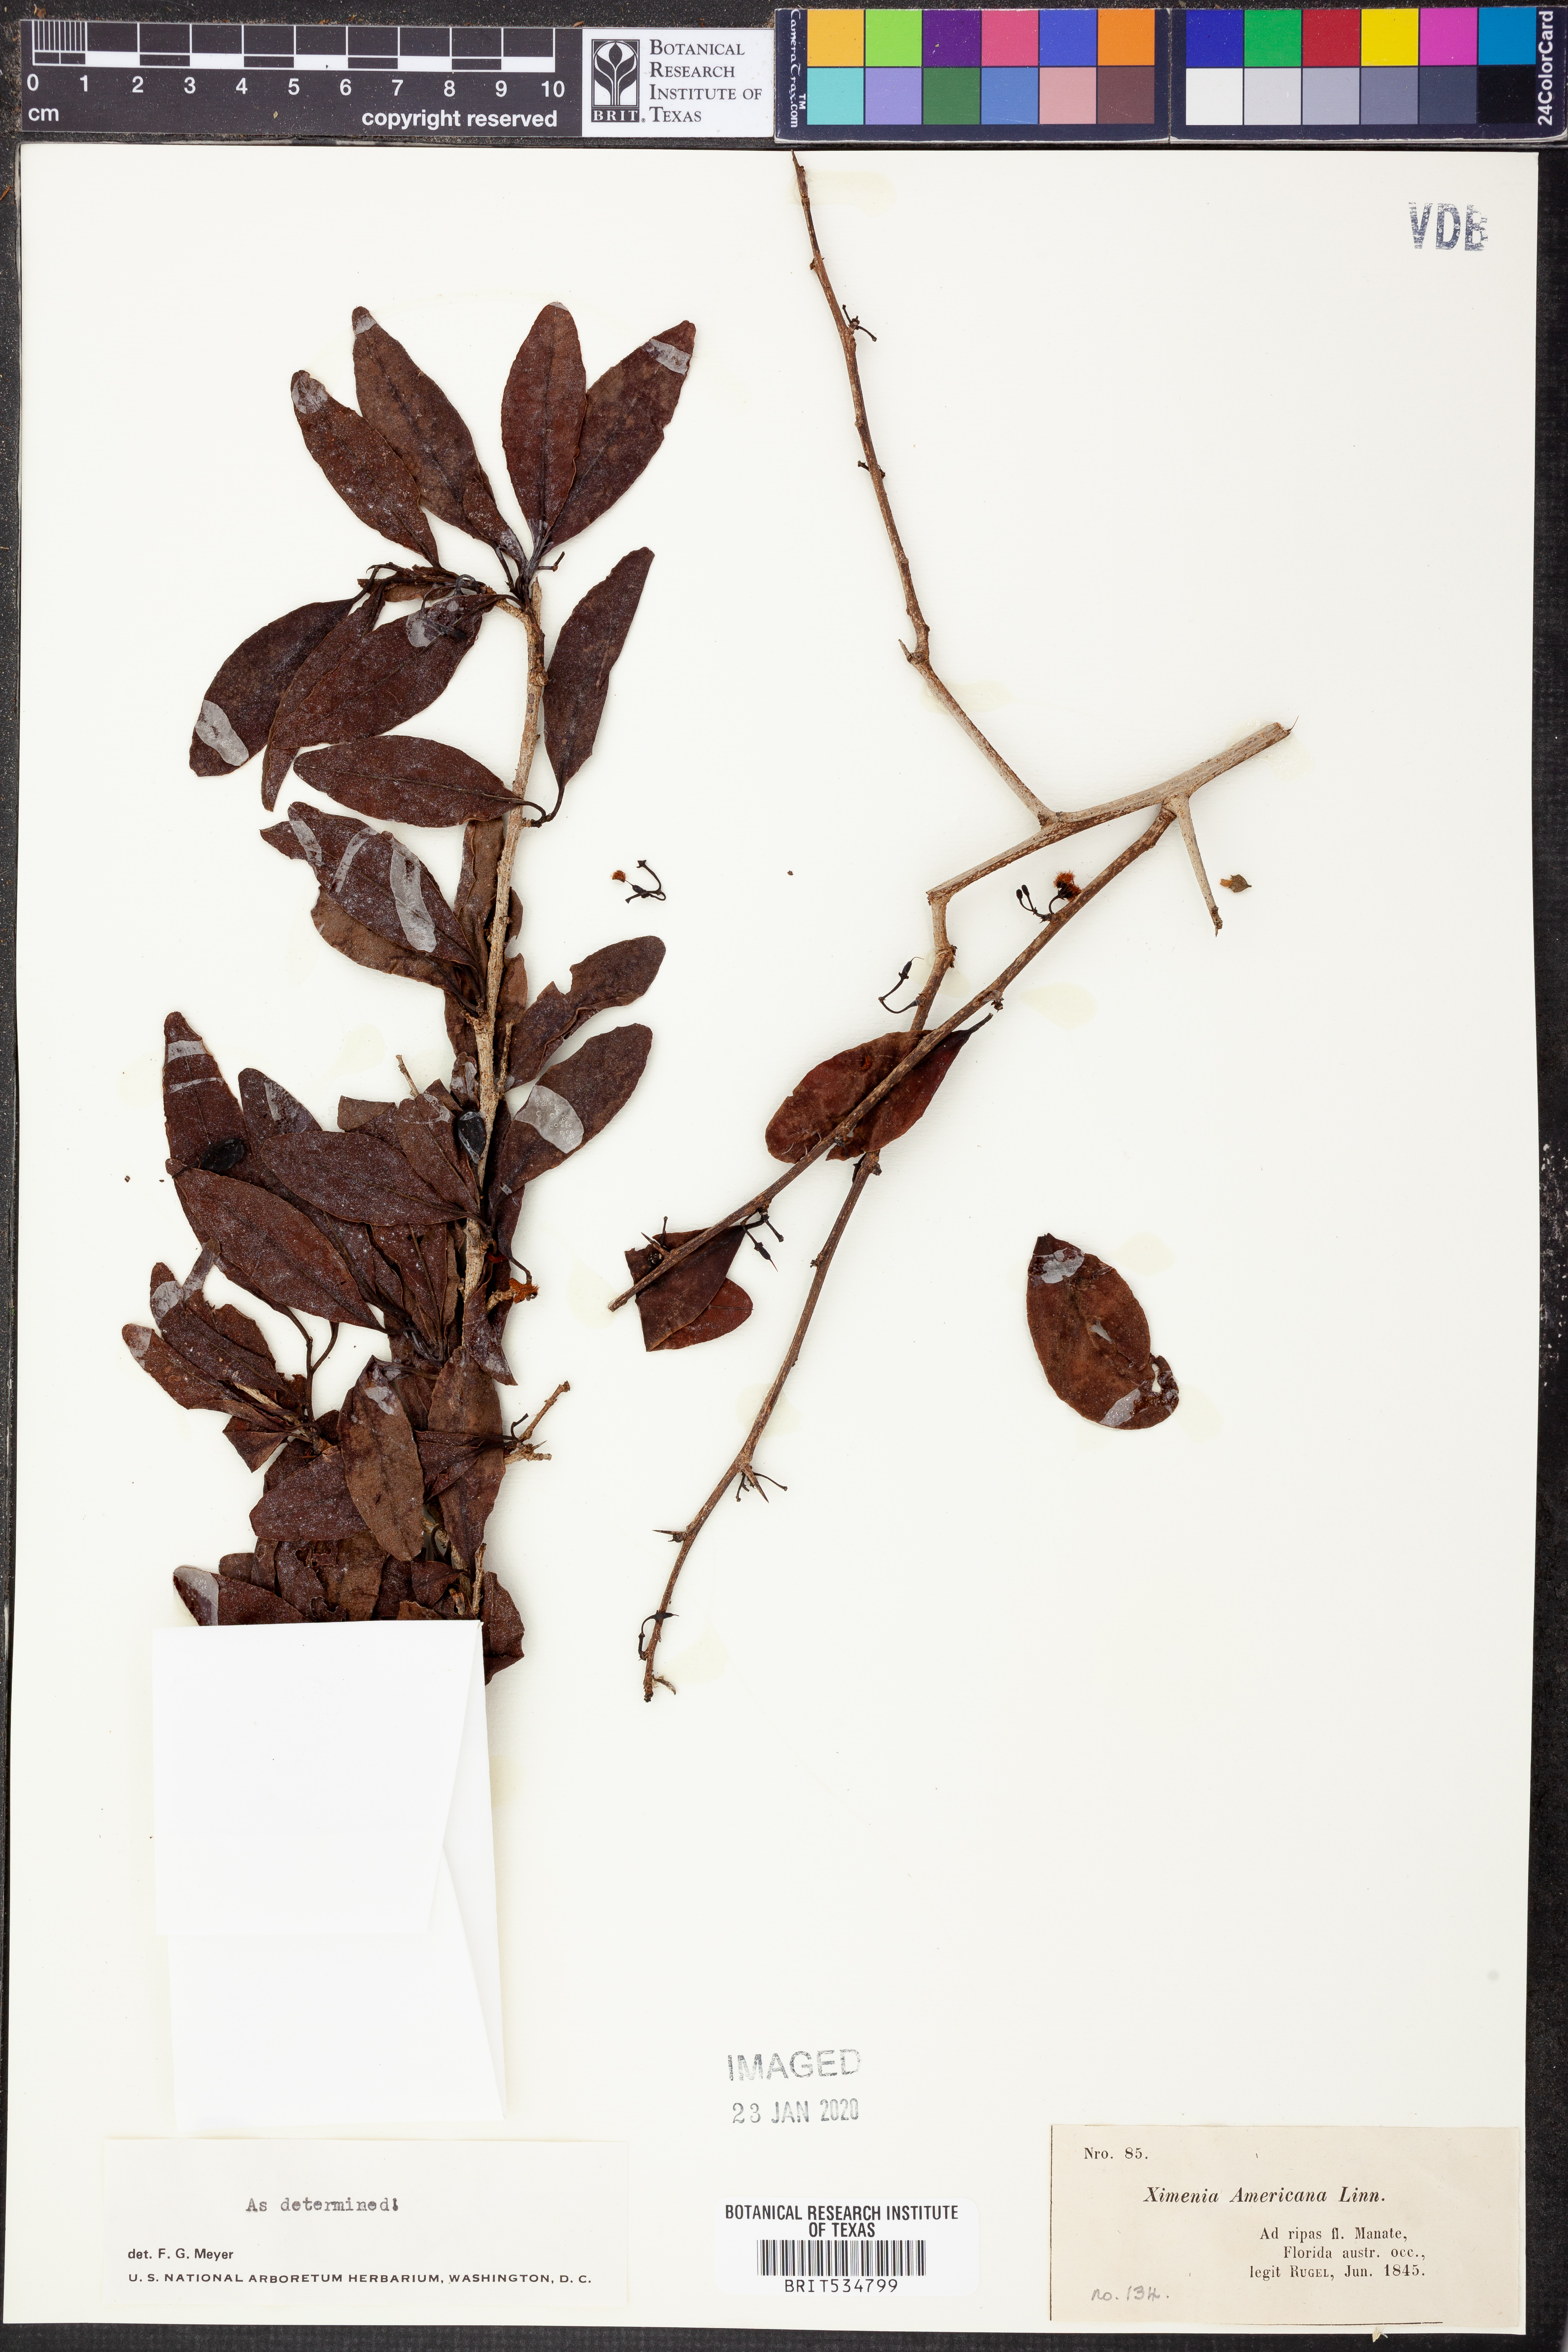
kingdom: Plantae
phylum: Tracheophyta
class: Magnoliopsida
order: Santalales
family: Ximeniaceae
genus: Ximenia
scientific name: Ximenia americana
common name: Tallowwood
